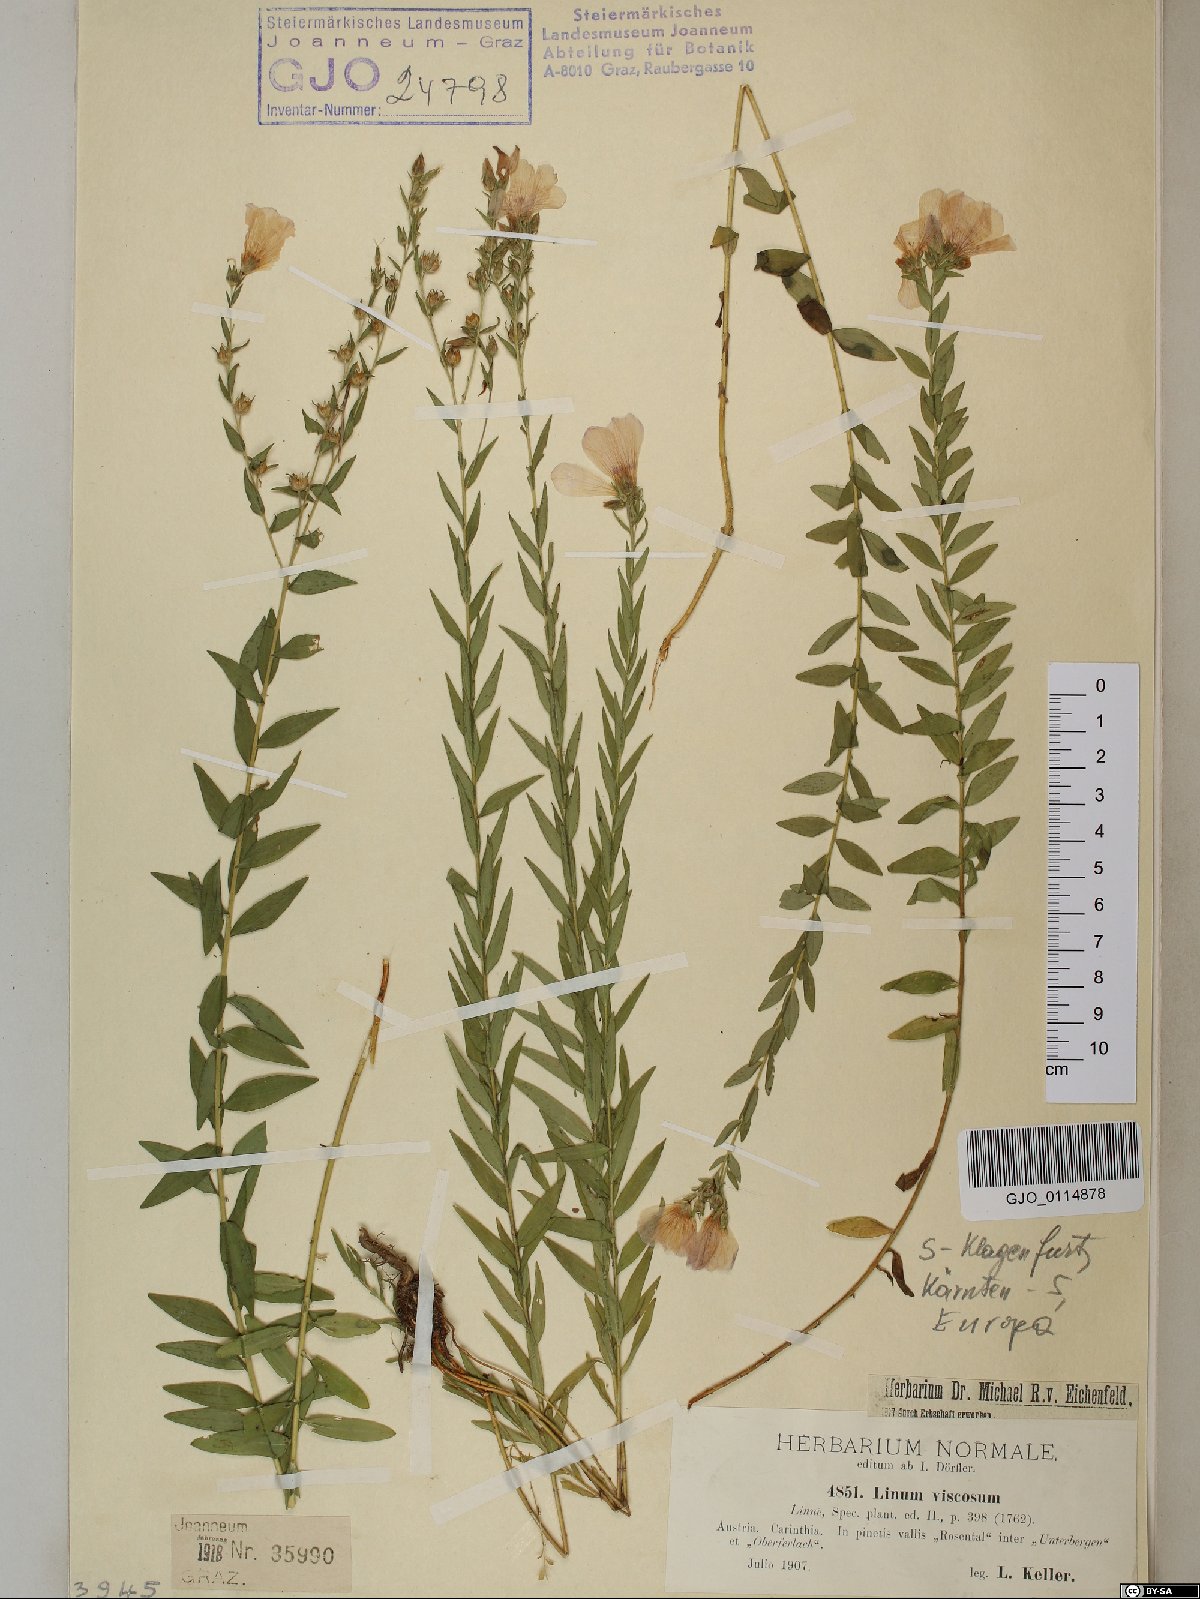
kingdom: Plantae
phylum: Tracheophyta
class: Magnoliopsida
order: Malpighiales
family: Linaceae
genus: Linum
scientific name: Linum viscosum
